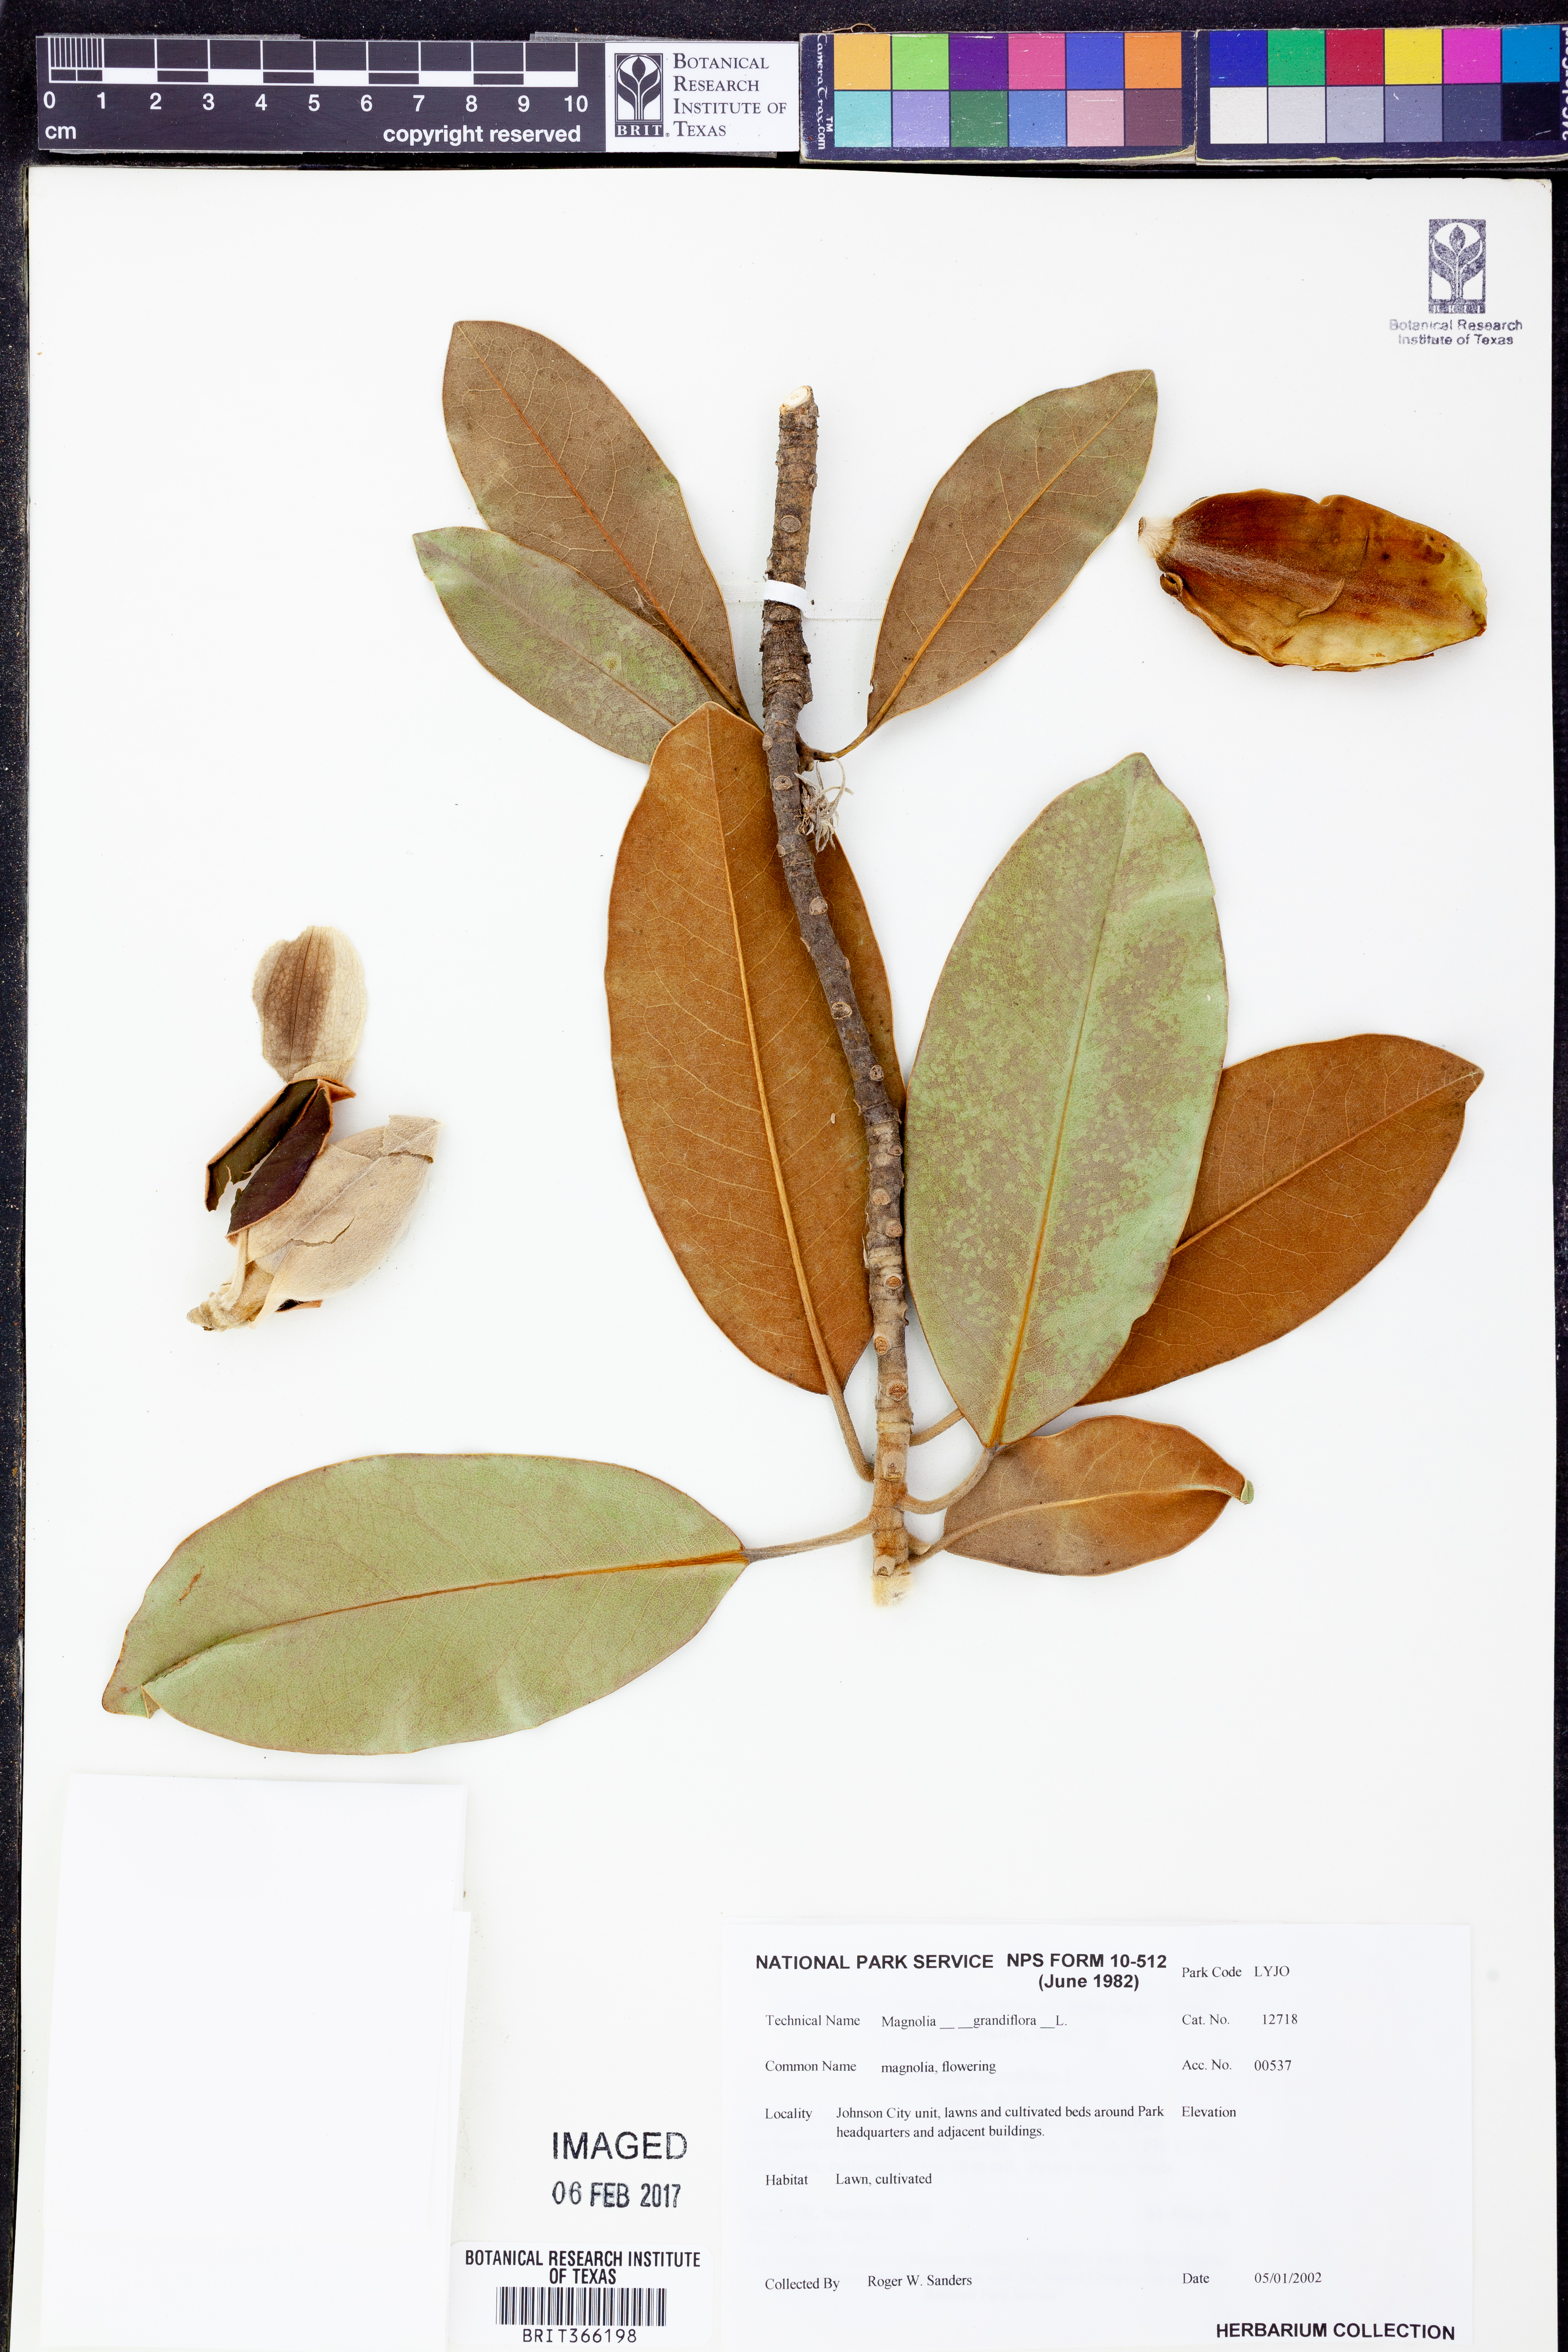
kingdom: Plantae
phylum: Tracheophyta
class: Magnoliopsida
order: Magnoliales
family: Magnoliaceae
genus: Magnolia
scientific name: Magnolia grandiflora
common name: Southern magnolia
